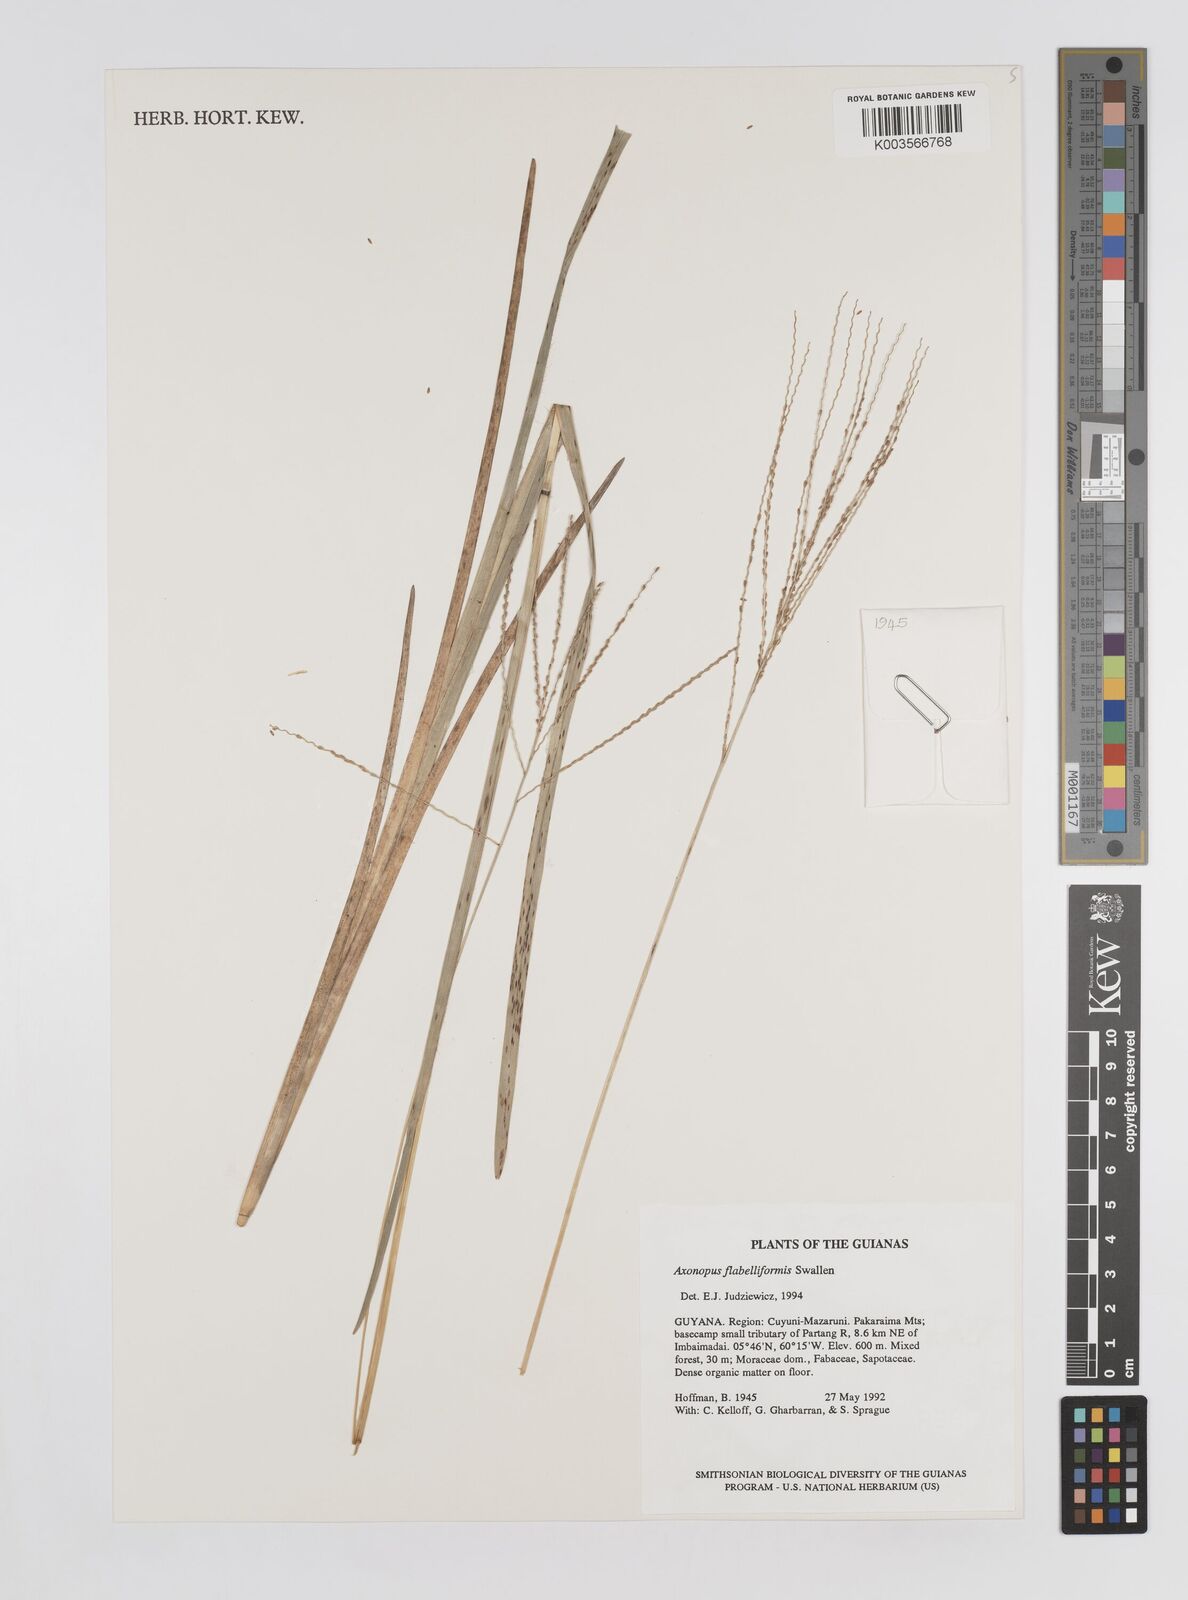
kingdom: Plantae
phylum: Tracheophyta
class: Liliopsida
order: Poales
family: Poaceae
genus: Axonopus
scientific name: Axonopus flabelliformis
